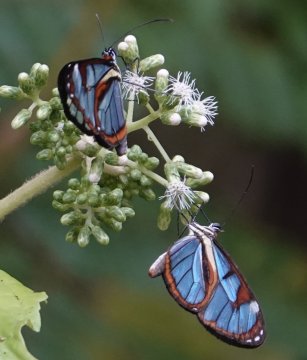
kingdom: Animalia
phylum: Arthropoda
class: Insecta
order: Lepidoptera
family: Nymphalidae
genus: Ithomia
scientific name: Ithomia diasia
